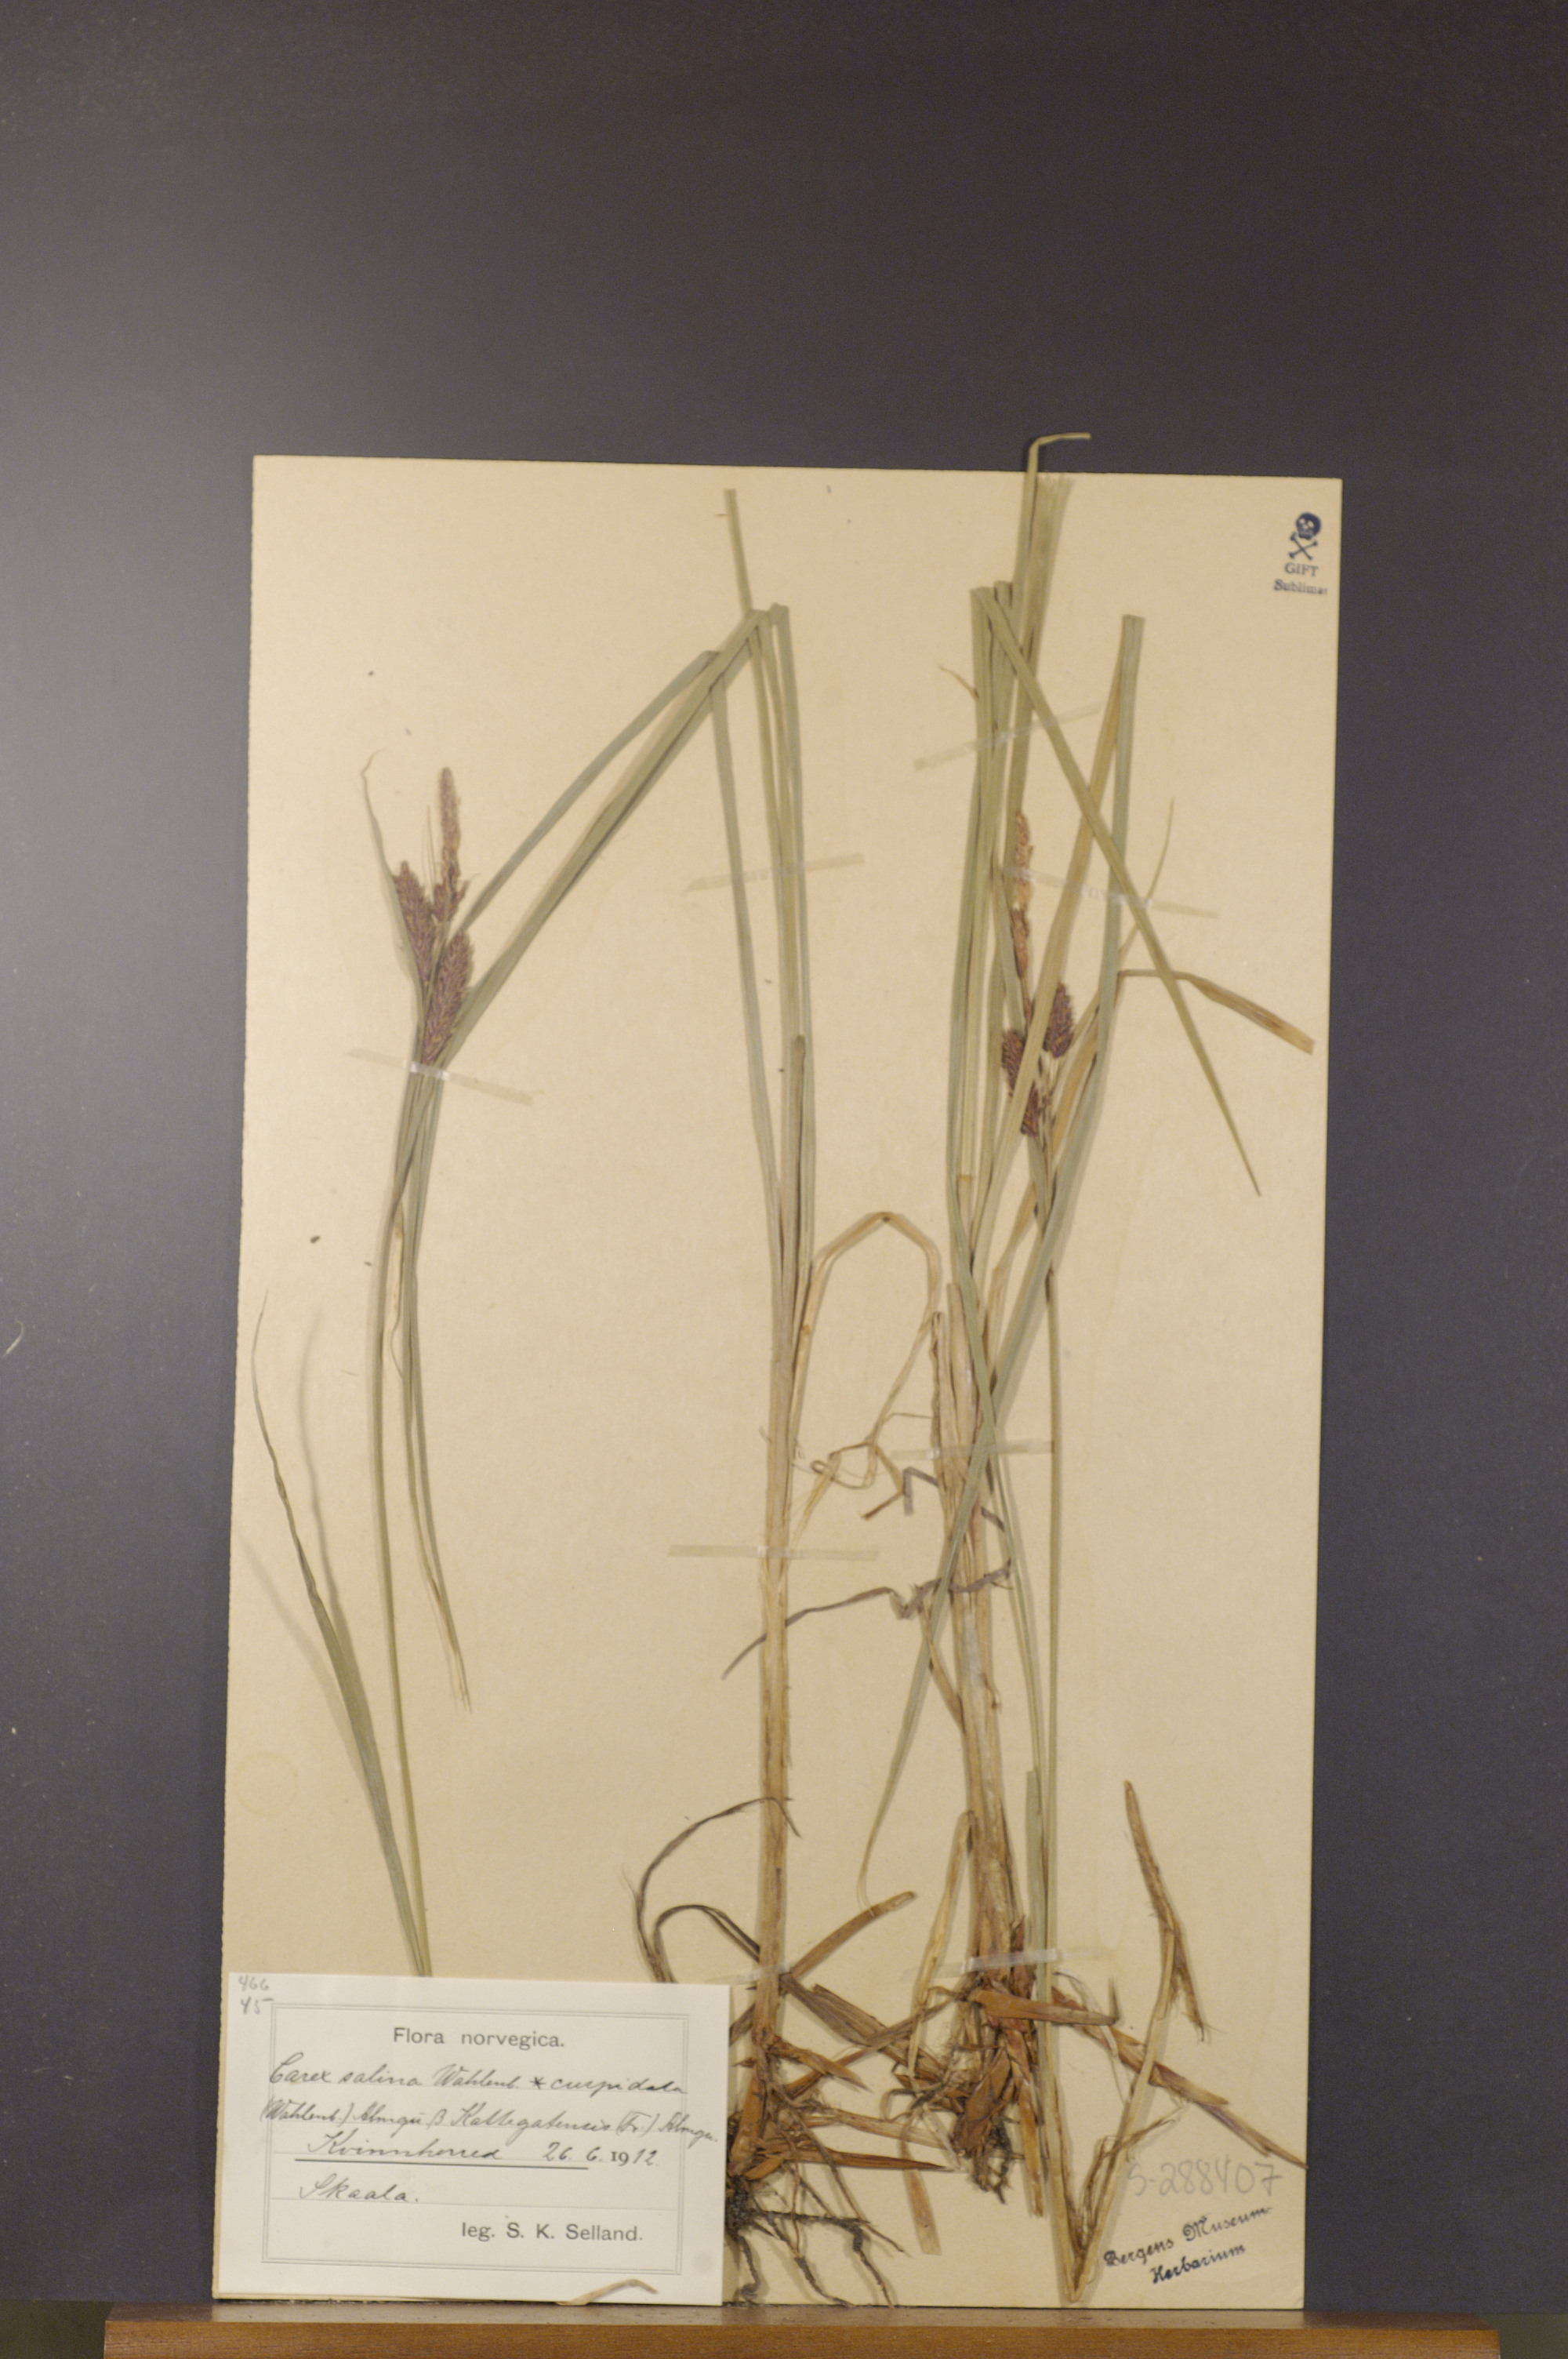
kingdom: Plantae
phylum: Tracheophyta
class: Liliopsida
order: Poales
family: Cyperaceae
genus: Carex
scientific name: Carex recta
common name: Estuarine sedge
